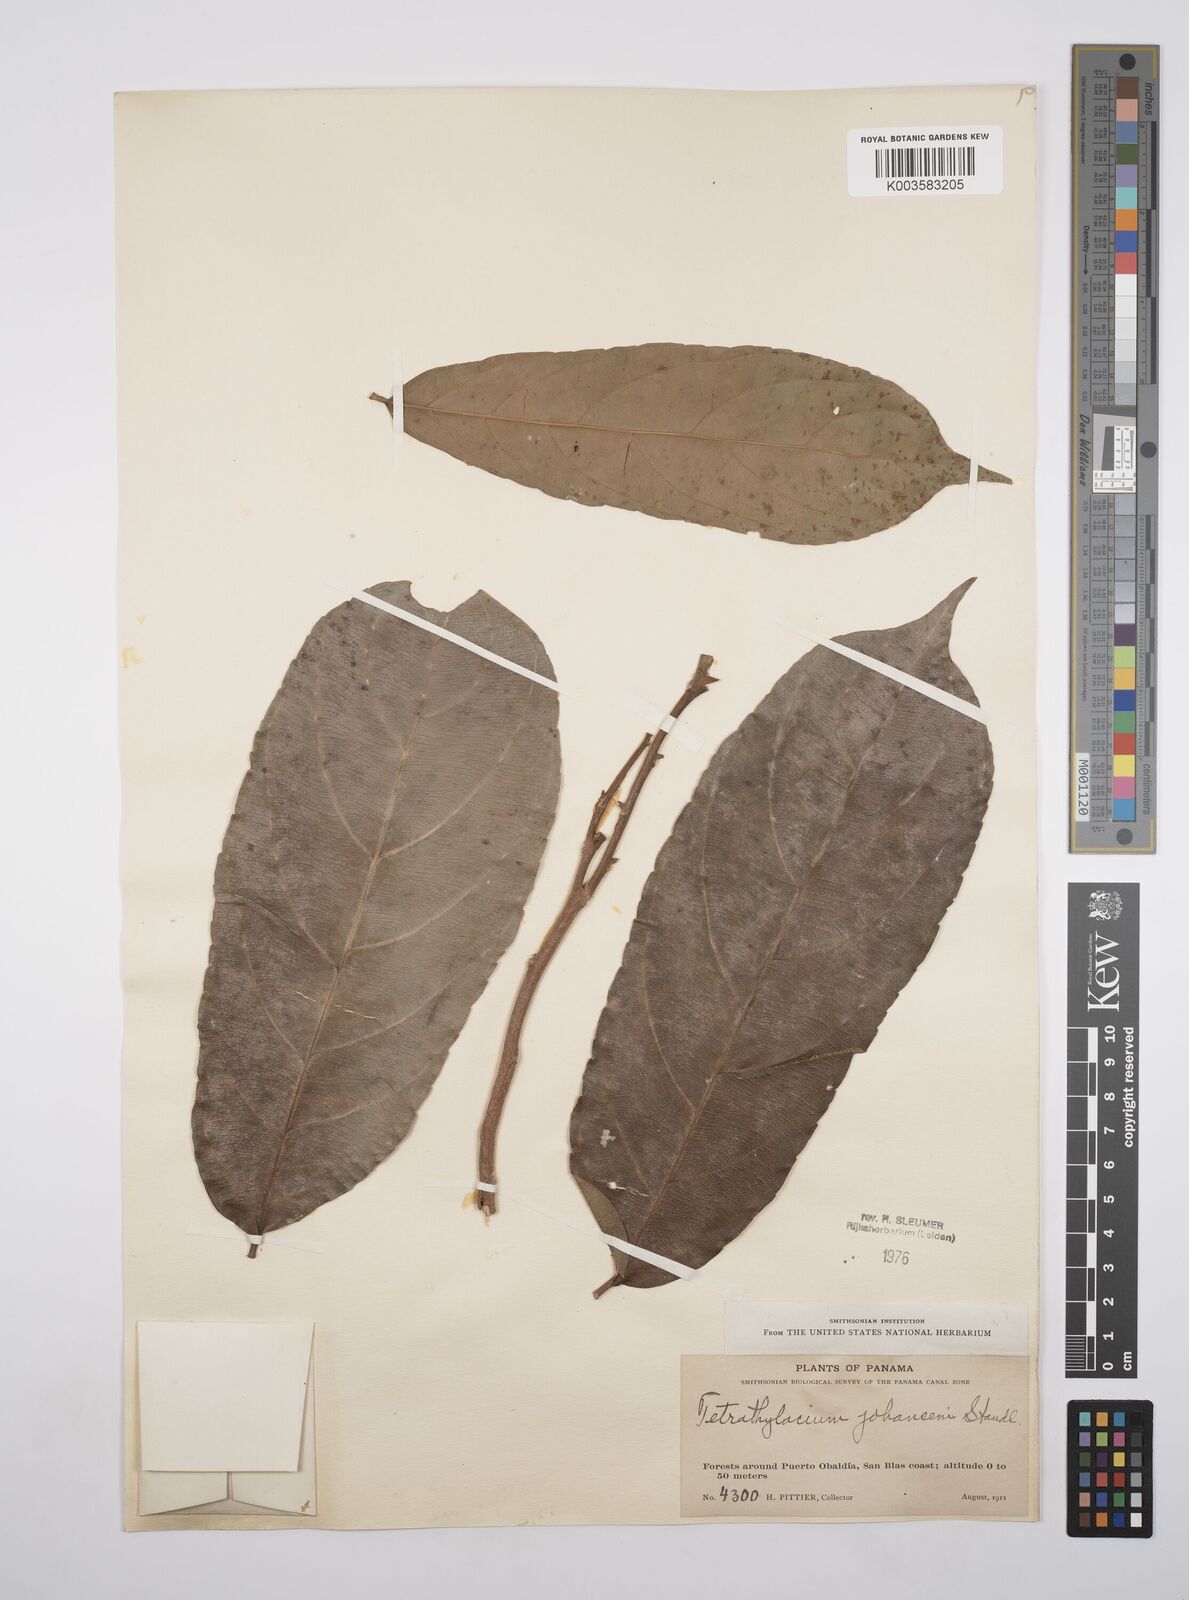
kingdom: Plantae
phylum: Tracheophyta
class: Magnoliopsida
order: Malpighiales
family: Salicaceae
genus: Tetrathylacium
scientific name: Tetrathylacium johansenii
